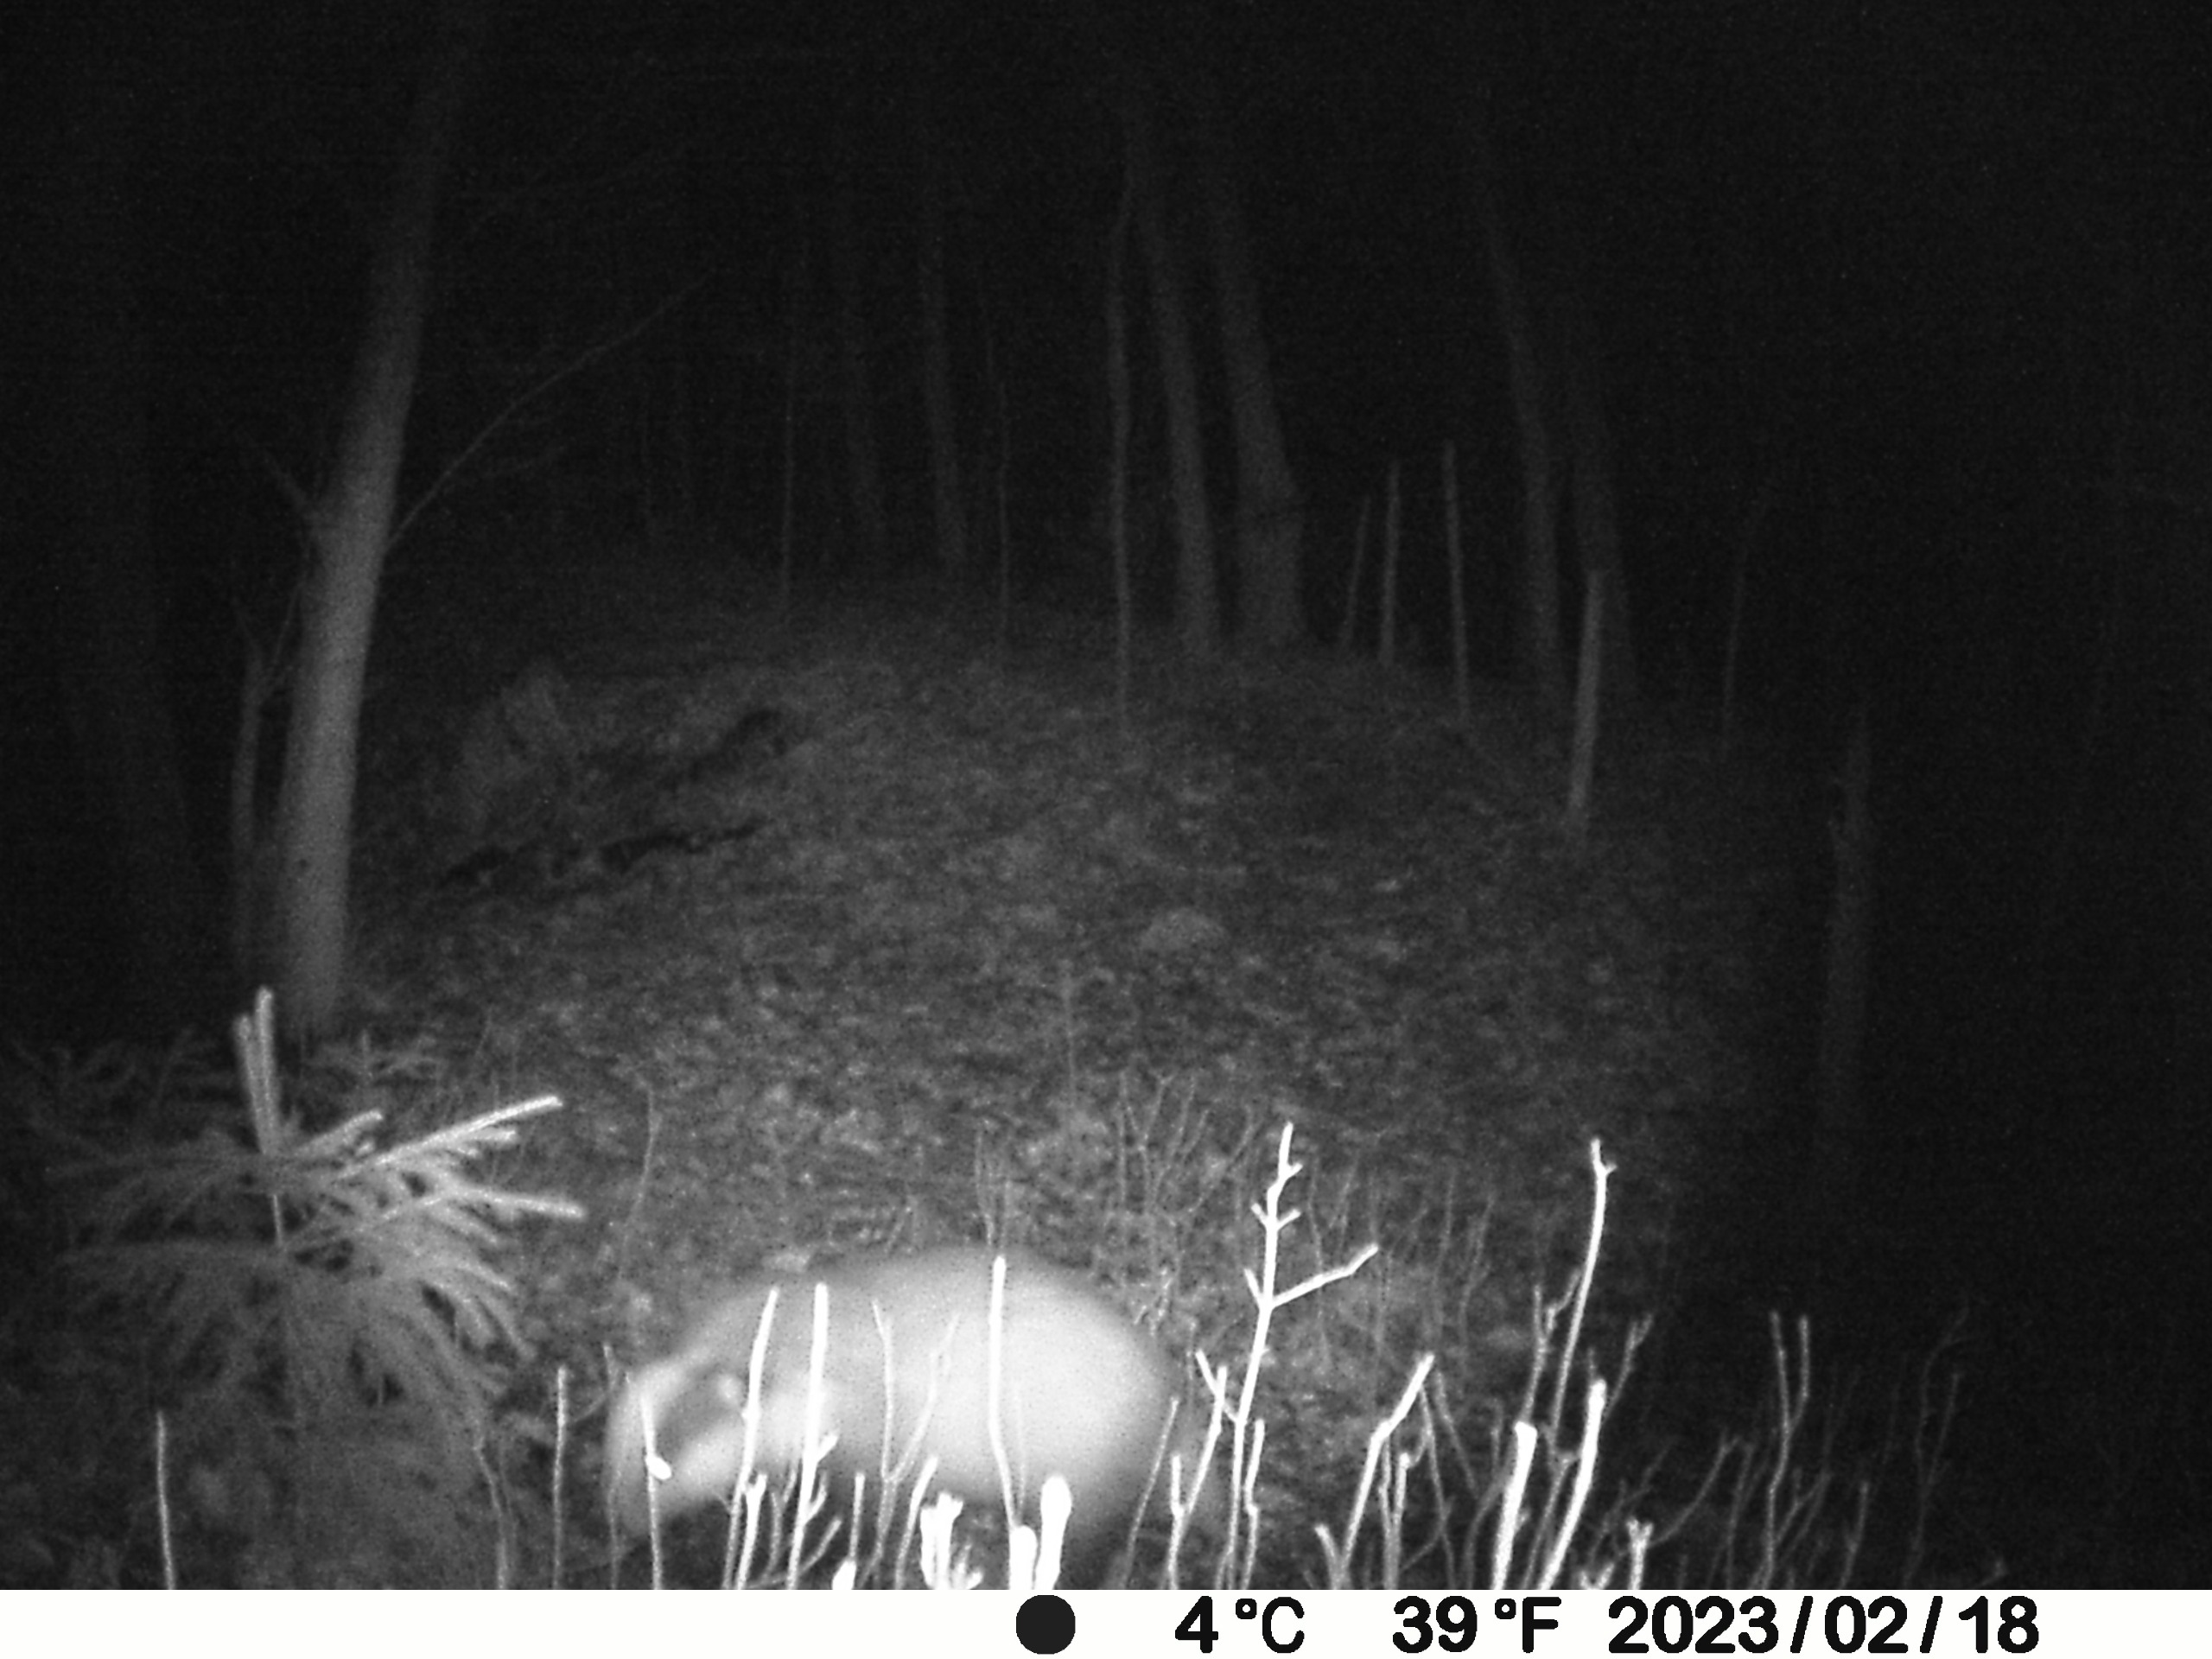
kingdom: Animalia
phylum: Chordata
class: Mammalia
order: Carnivora
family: Mustelidae
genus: Meles
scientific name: Meles meles
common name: Grævling
